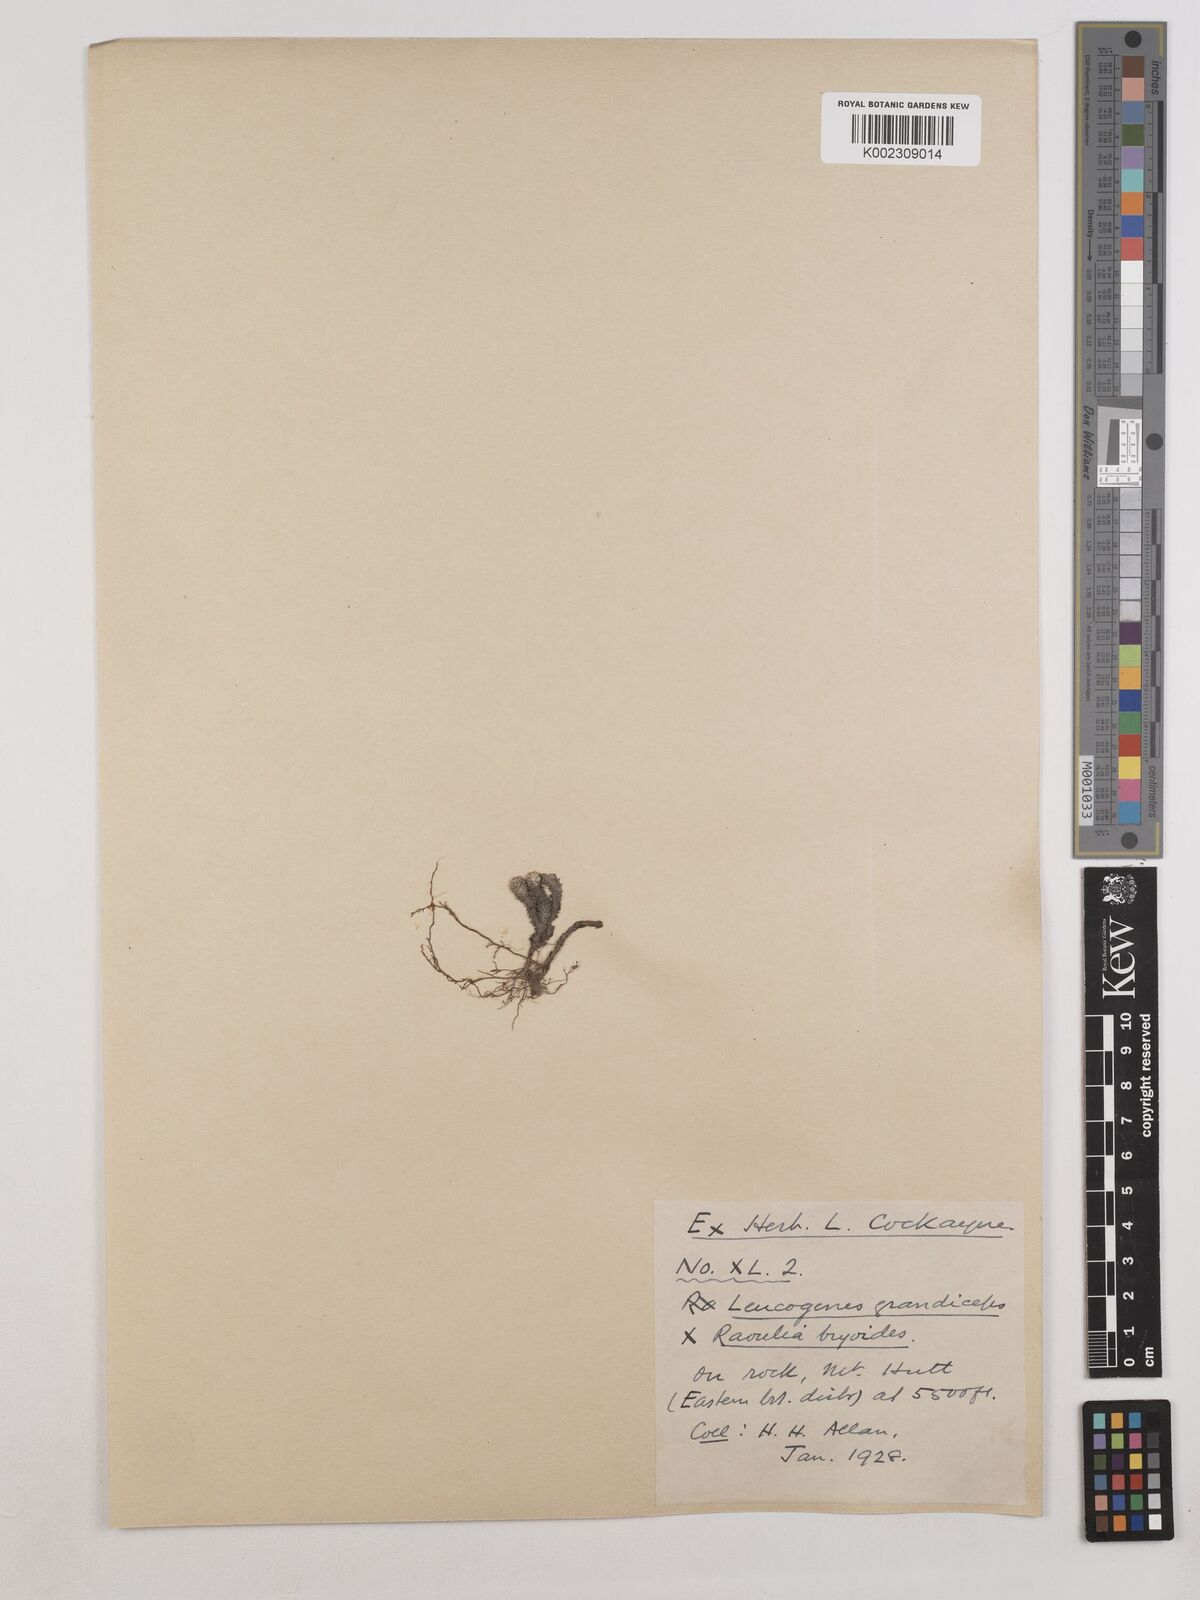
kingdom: Plantae
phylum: Tracheophyta
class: Magnoliopsida
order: Asterales
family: Asteraceae
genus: Leucogenes
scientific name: Leucogenes grandiceps
